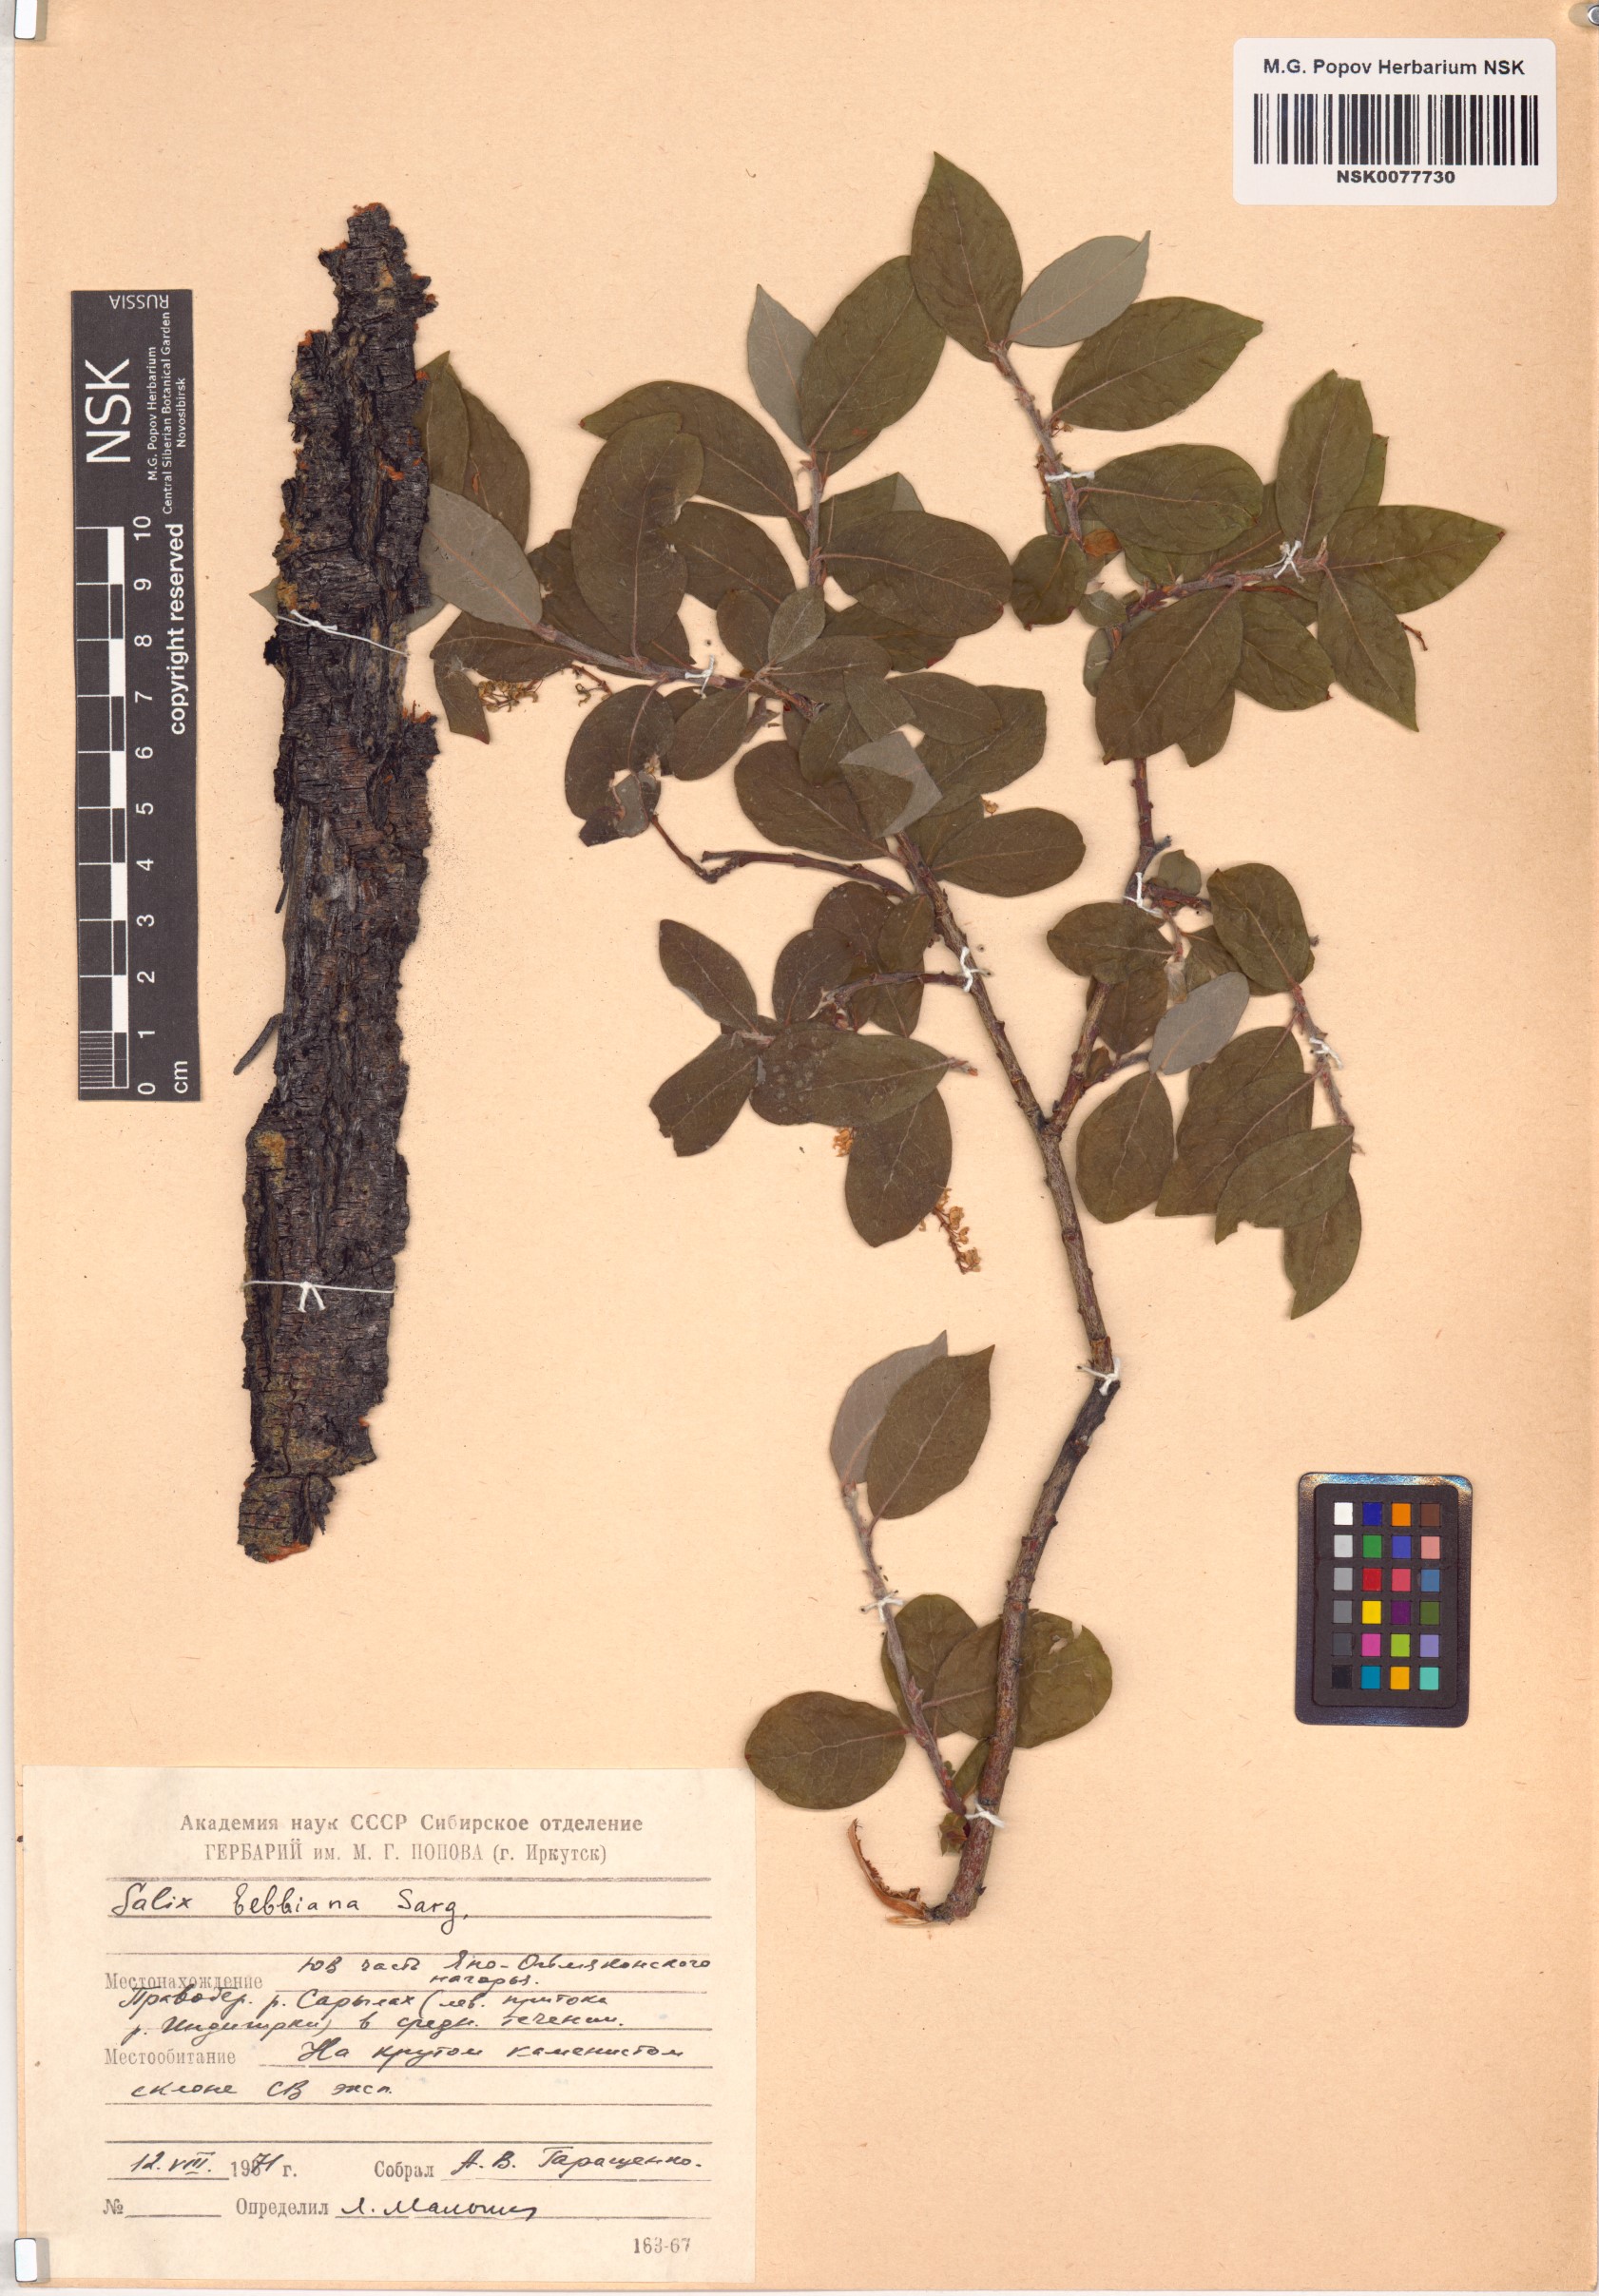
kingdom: Plantae
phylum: Tracheophyta
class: Magnoliopsida
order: Malpighiales
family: Salicaceae
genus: Salix
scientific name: Salix bebbiana
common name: Bebb's willow
